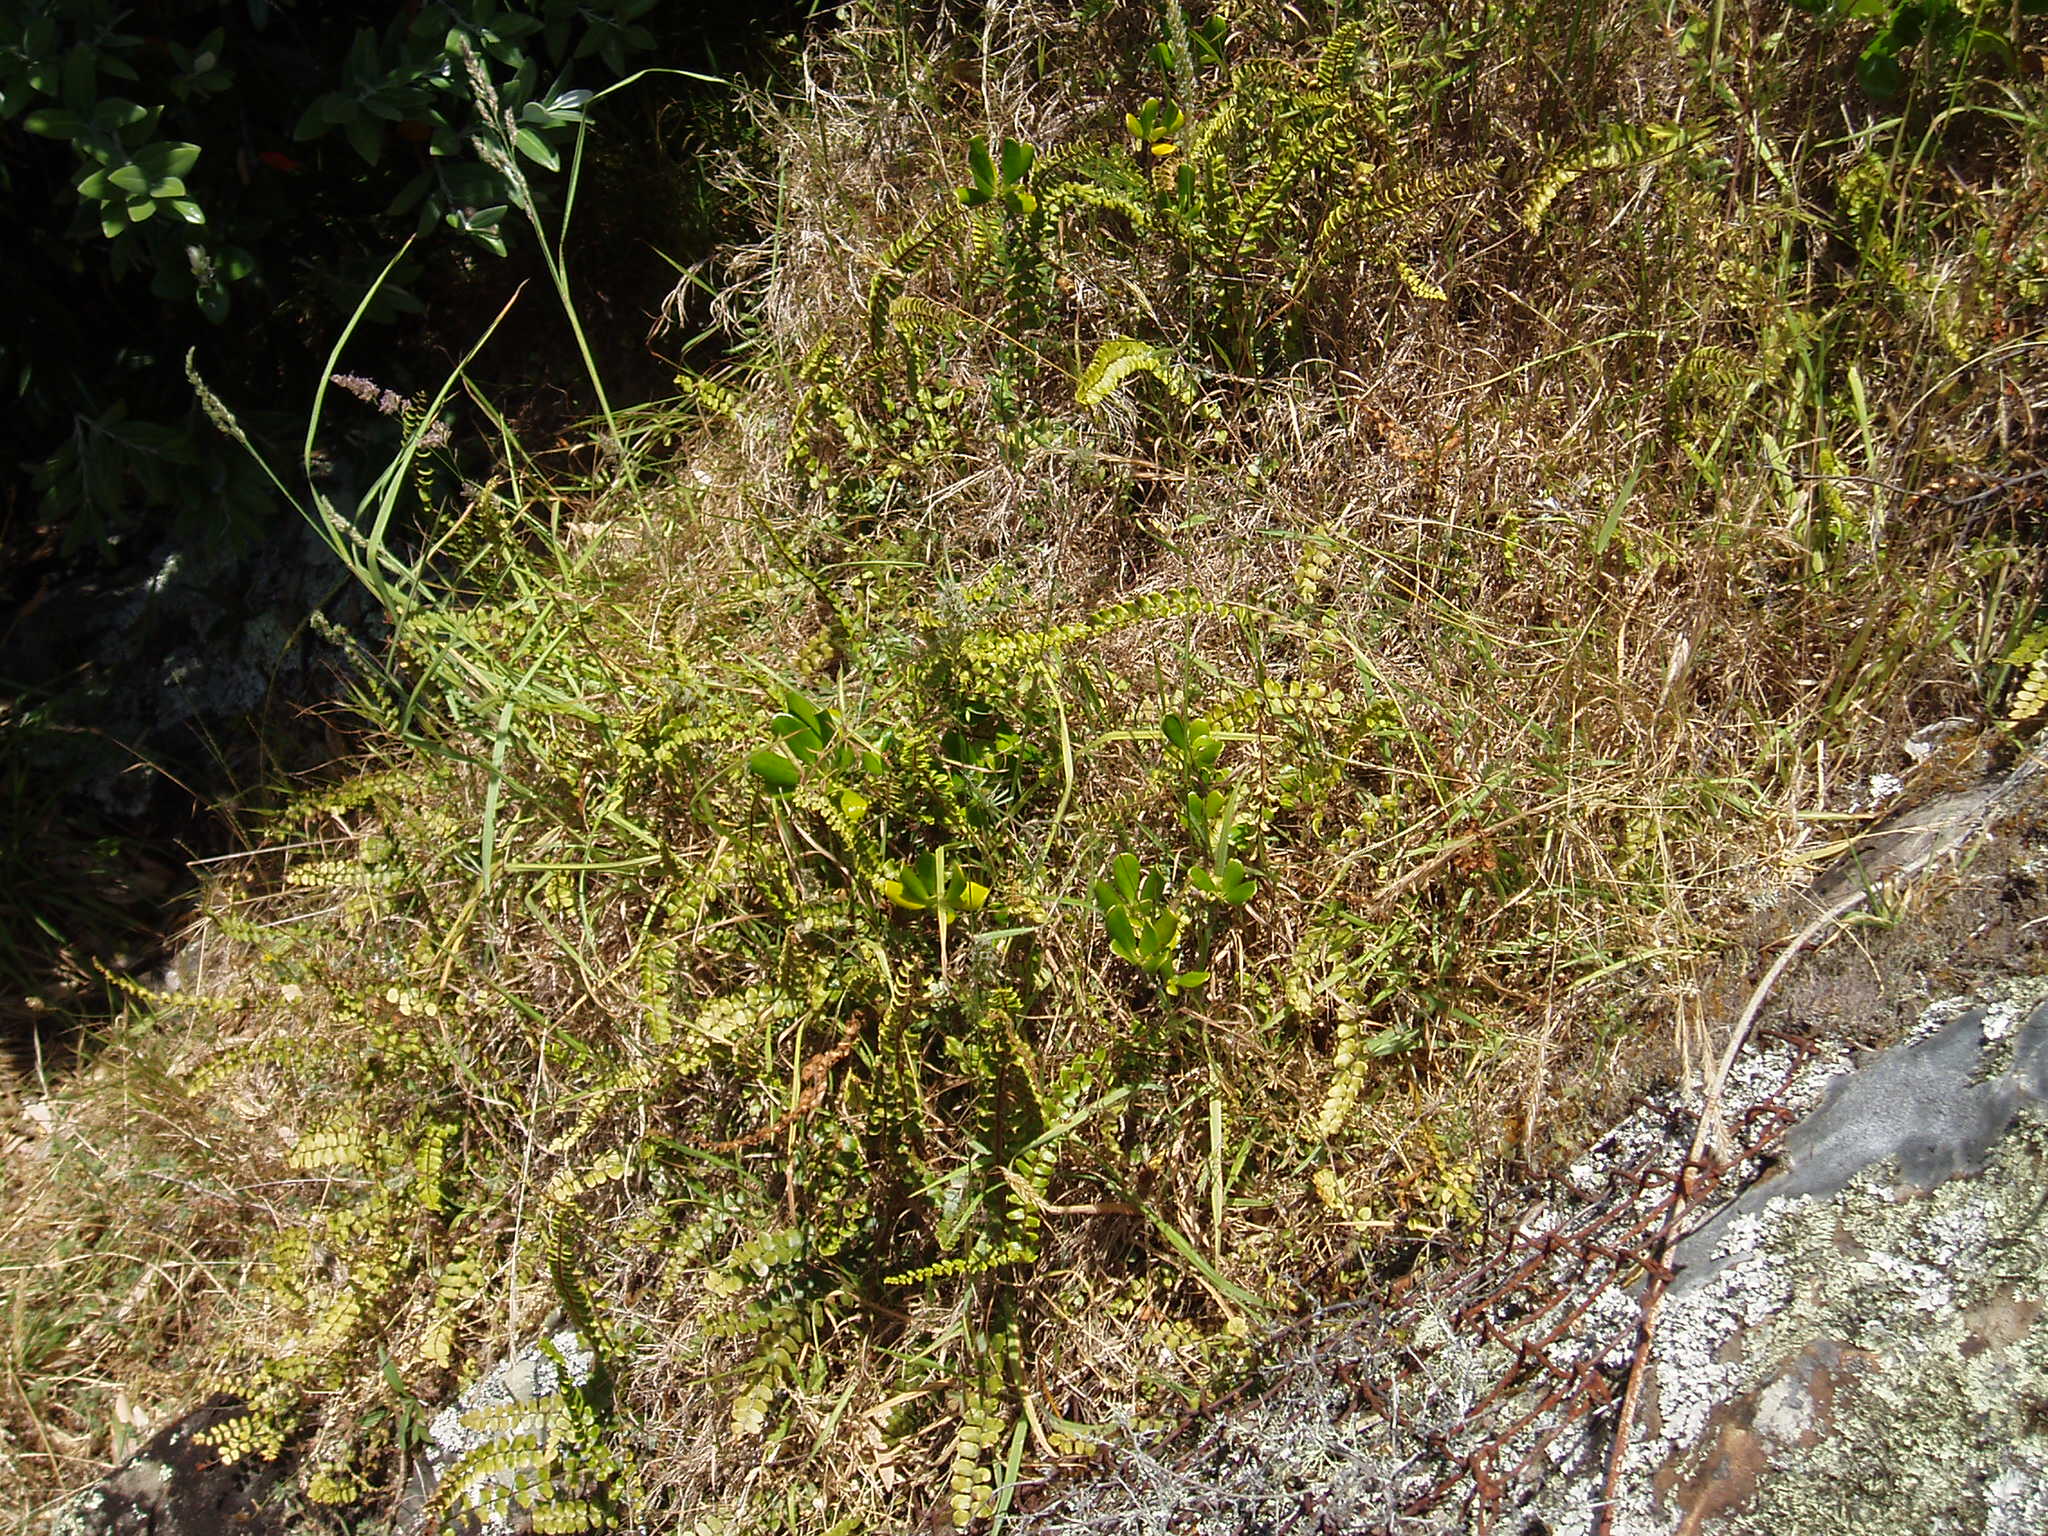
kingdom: Plantae
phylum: Tracheophyta
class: Polypodiopsida
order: Polypodiales
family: Pteridaceae
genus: Pellaea
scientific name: Pellaea rotundifolia
